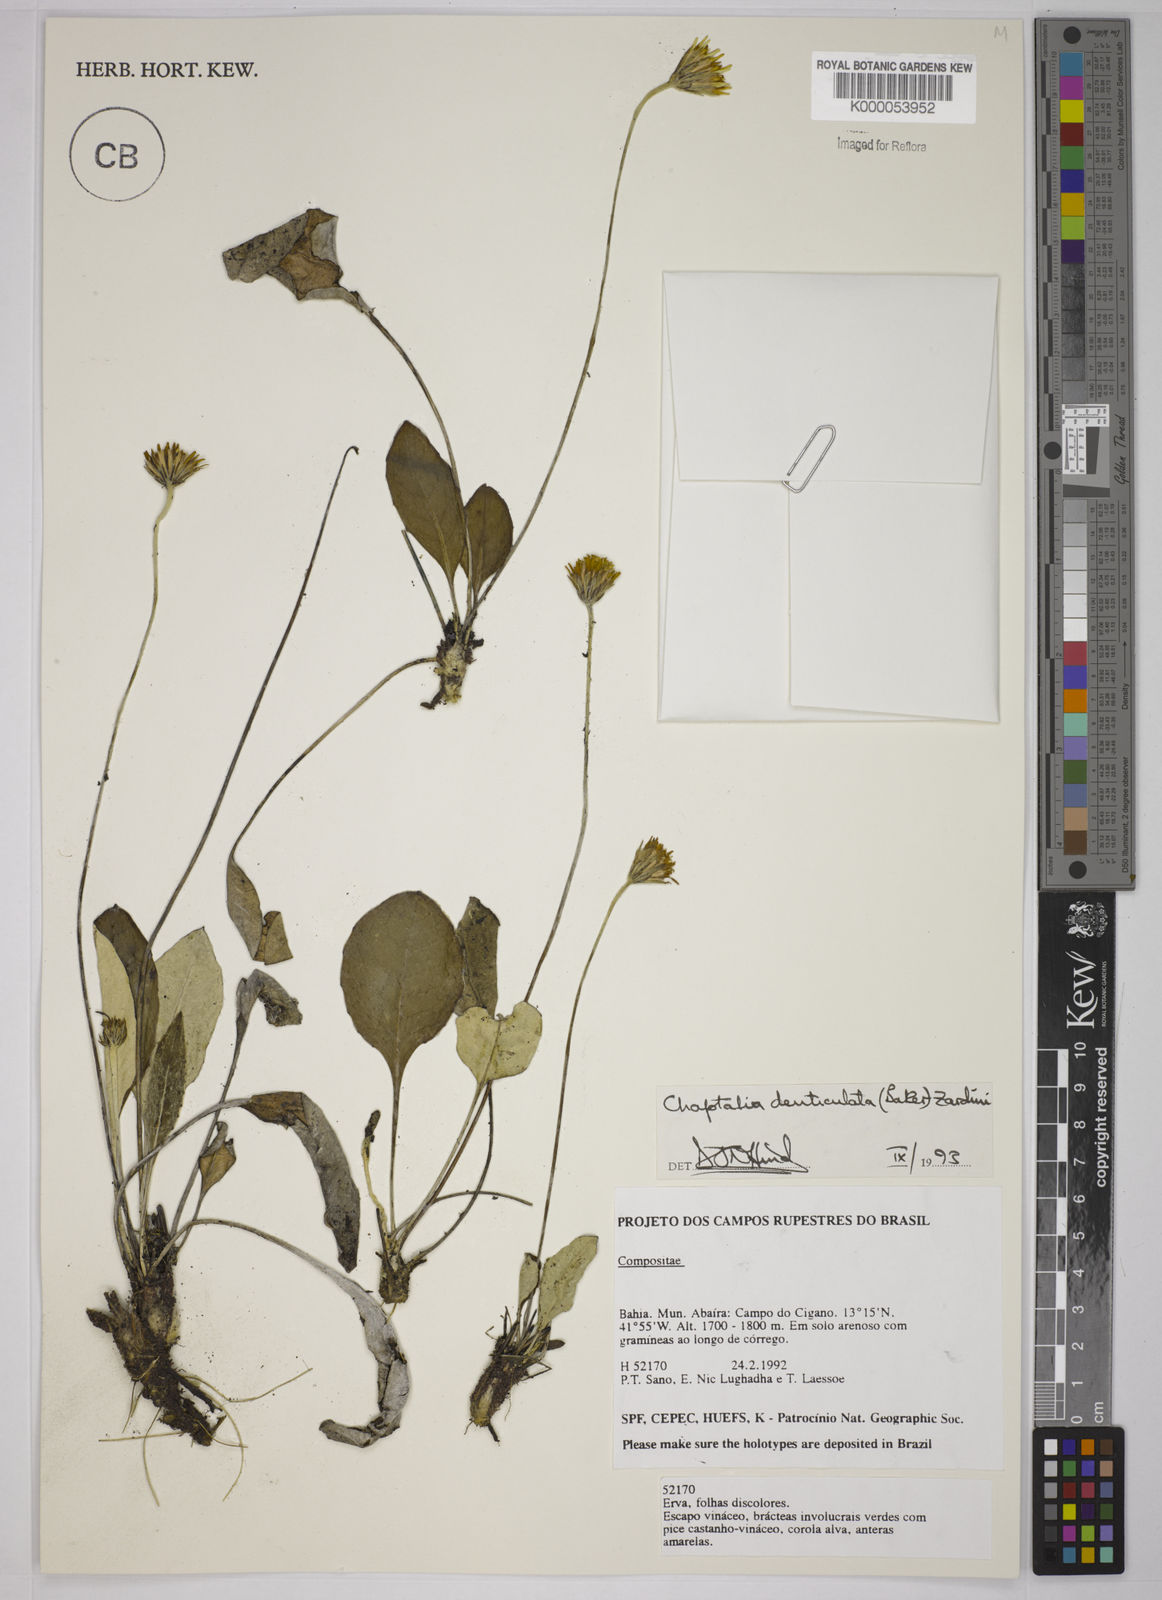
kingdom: Plantae
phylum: Tracheophyta
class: Magnoliopsida
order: Asterales
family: Asteraceae
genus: Chaptalia
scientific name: Chaptalia denticulata
